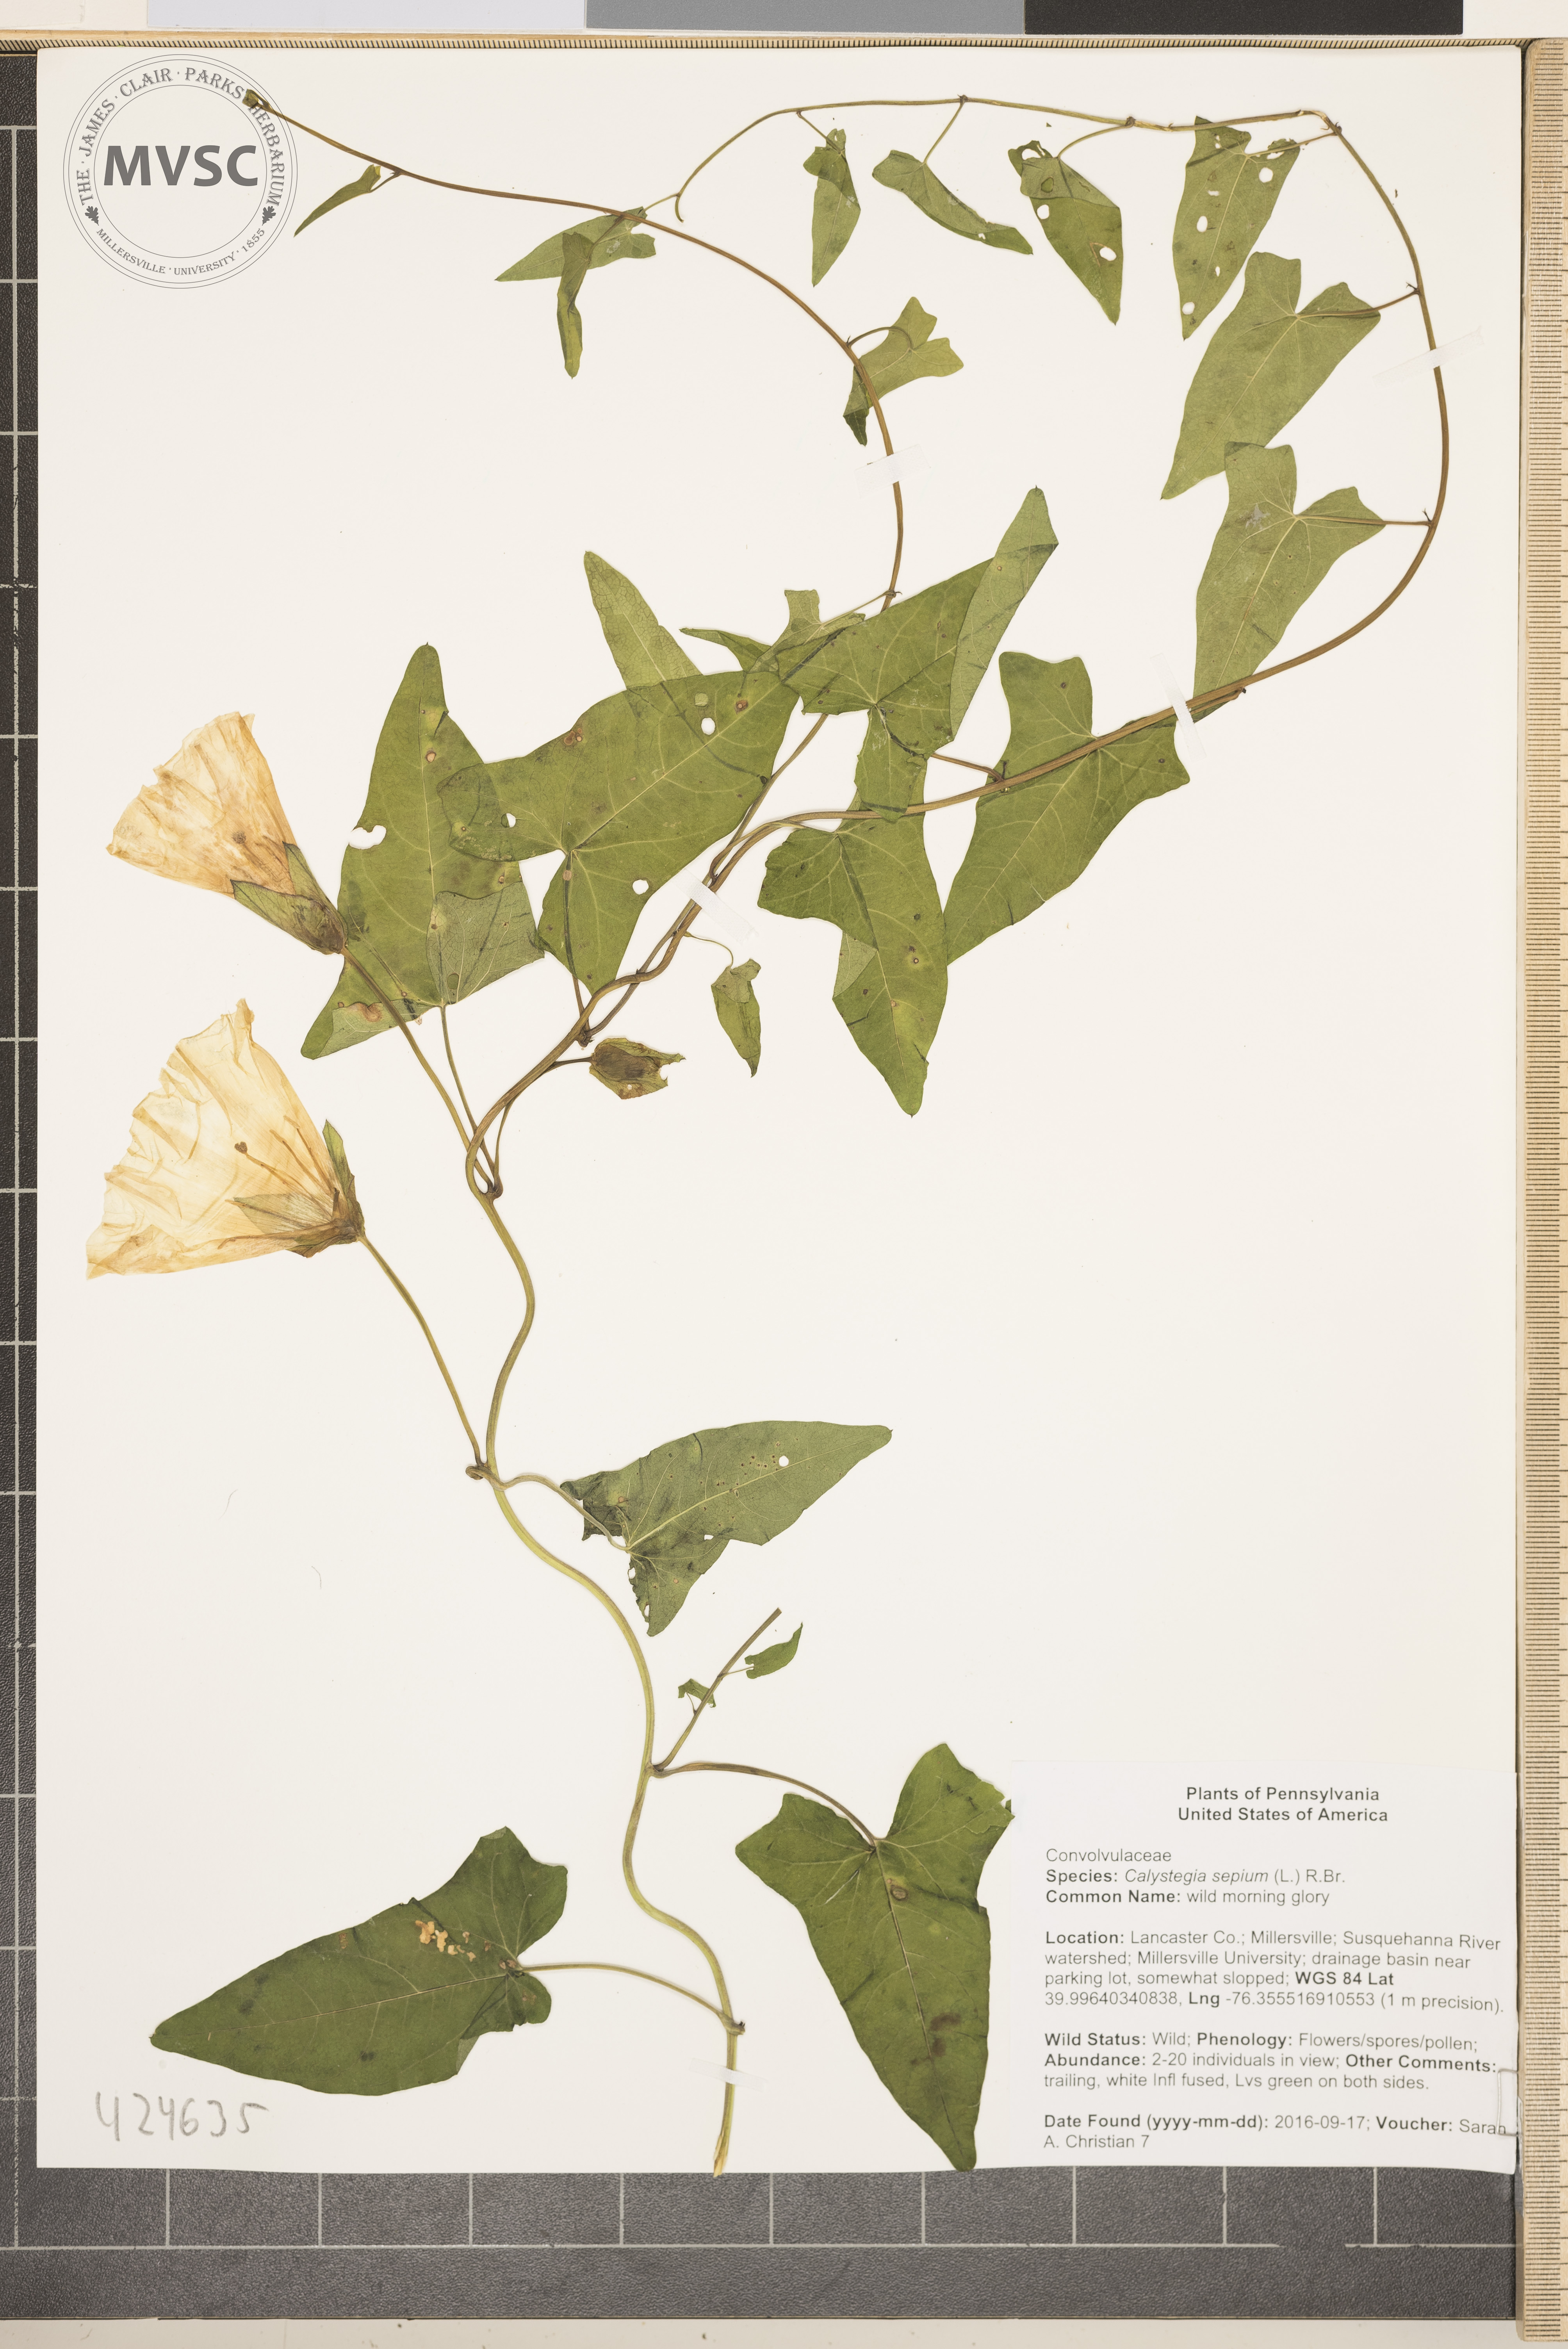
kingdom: Plantae
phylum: Tracheophyta
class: Magnoliopsida
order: Solanales
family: Convolvulaceae
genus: Calystegia
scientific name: Calystegia sepium
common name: wild morning glory
